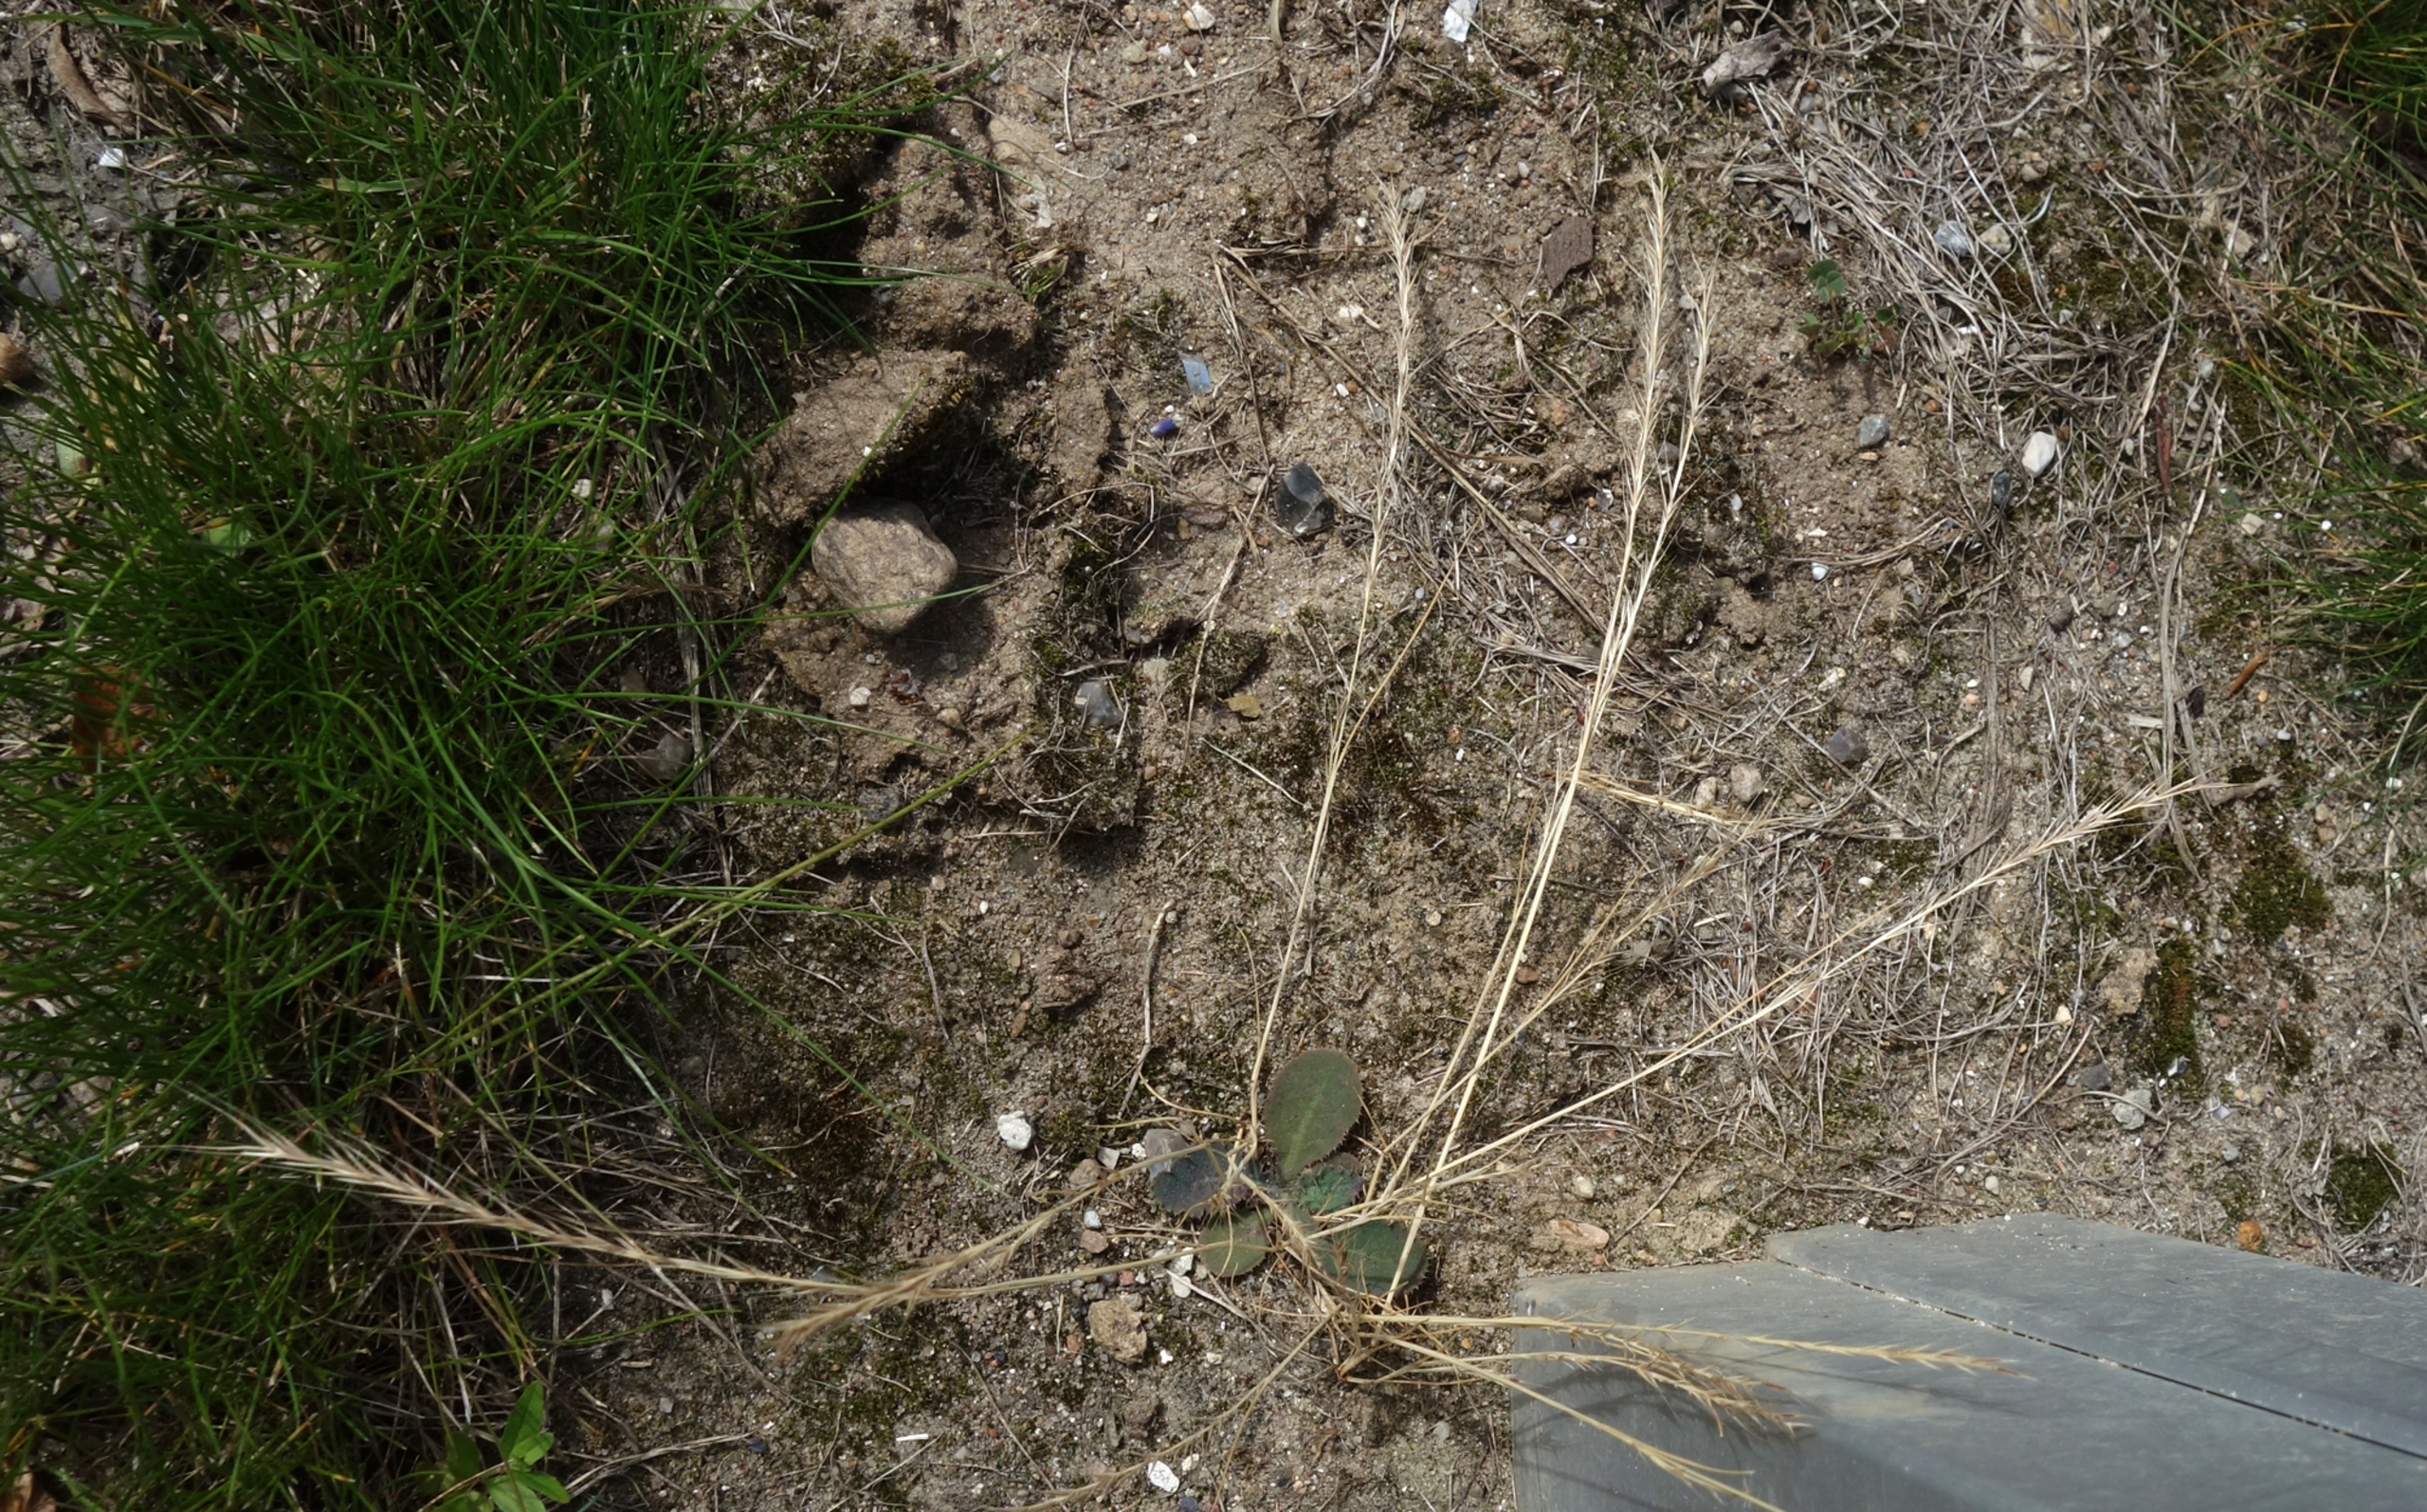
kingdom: Plantae
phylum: Tracheophyta
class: Liliopsida
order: Poales
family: Poaceae
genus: Festuca
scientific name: Festuca myuros
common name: Stor væselhale
